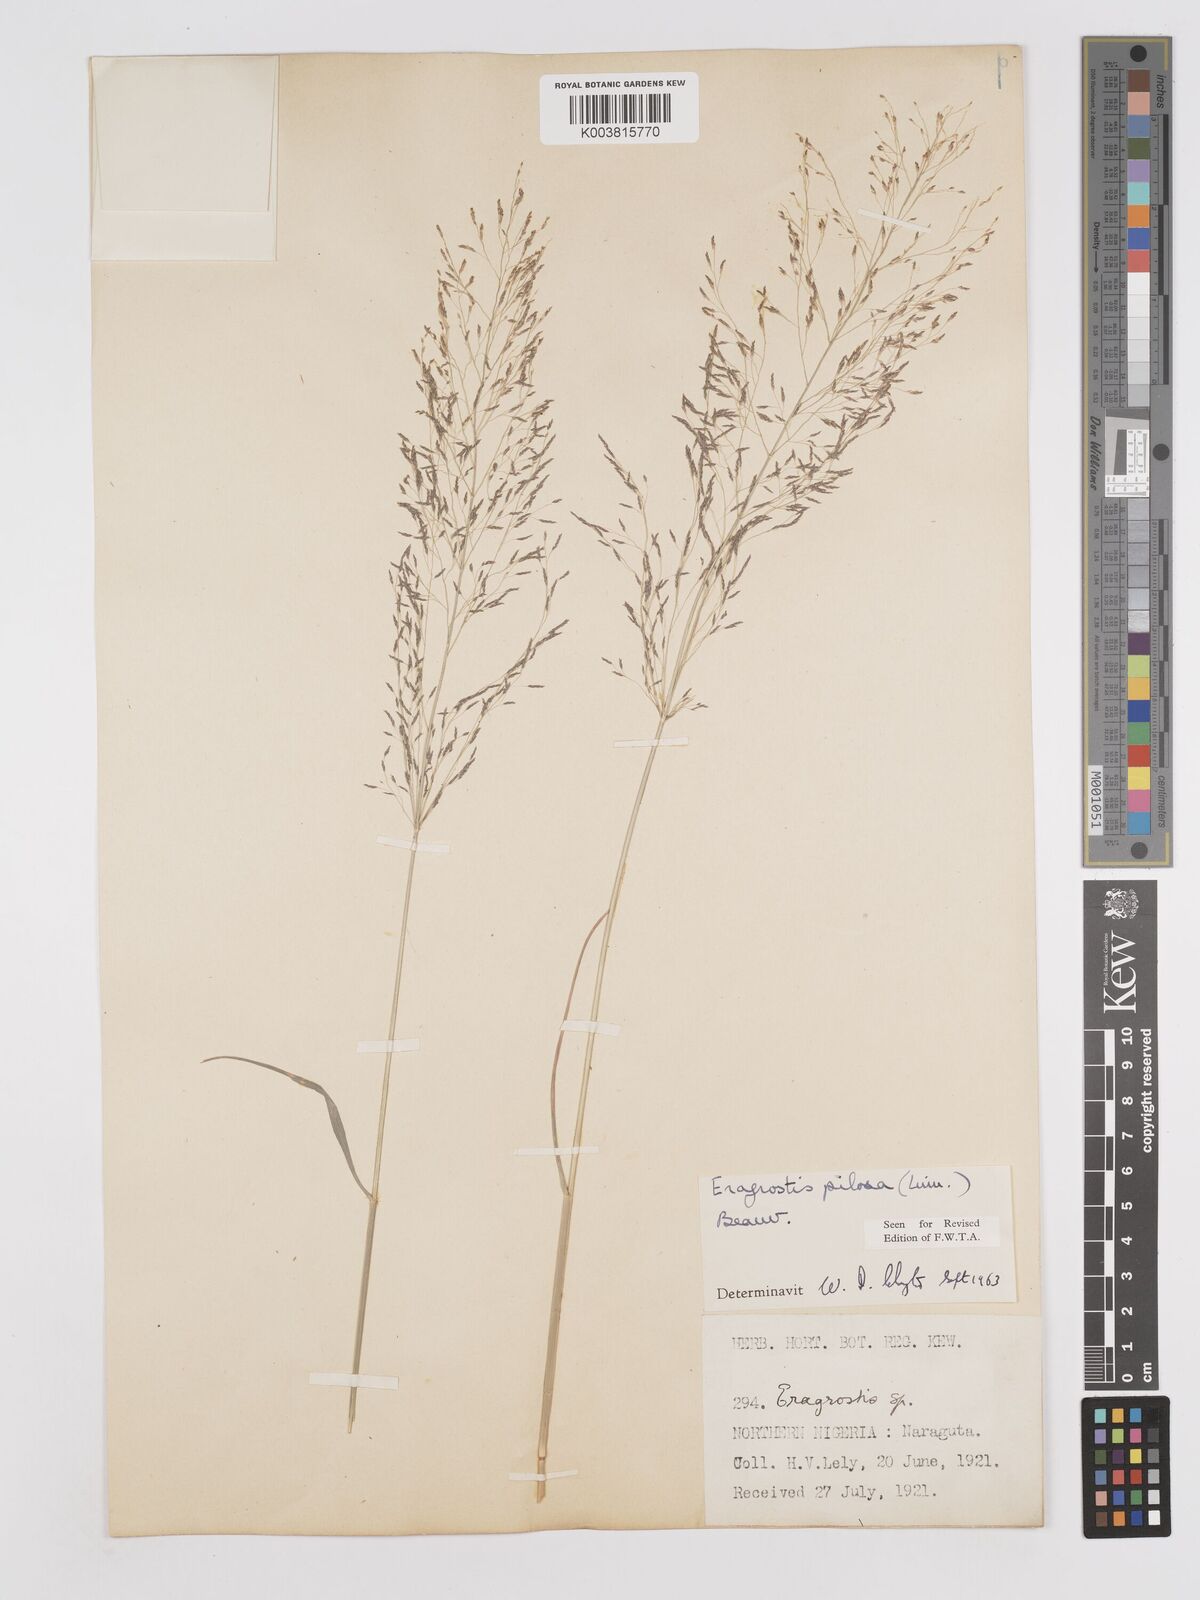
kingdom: Plantae
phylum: Tracheophyta
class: Liliopsida
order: Poales
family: Poaceae
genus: Eragrostis
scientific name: Eragrostis pilosa
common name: Indian lovegrass
